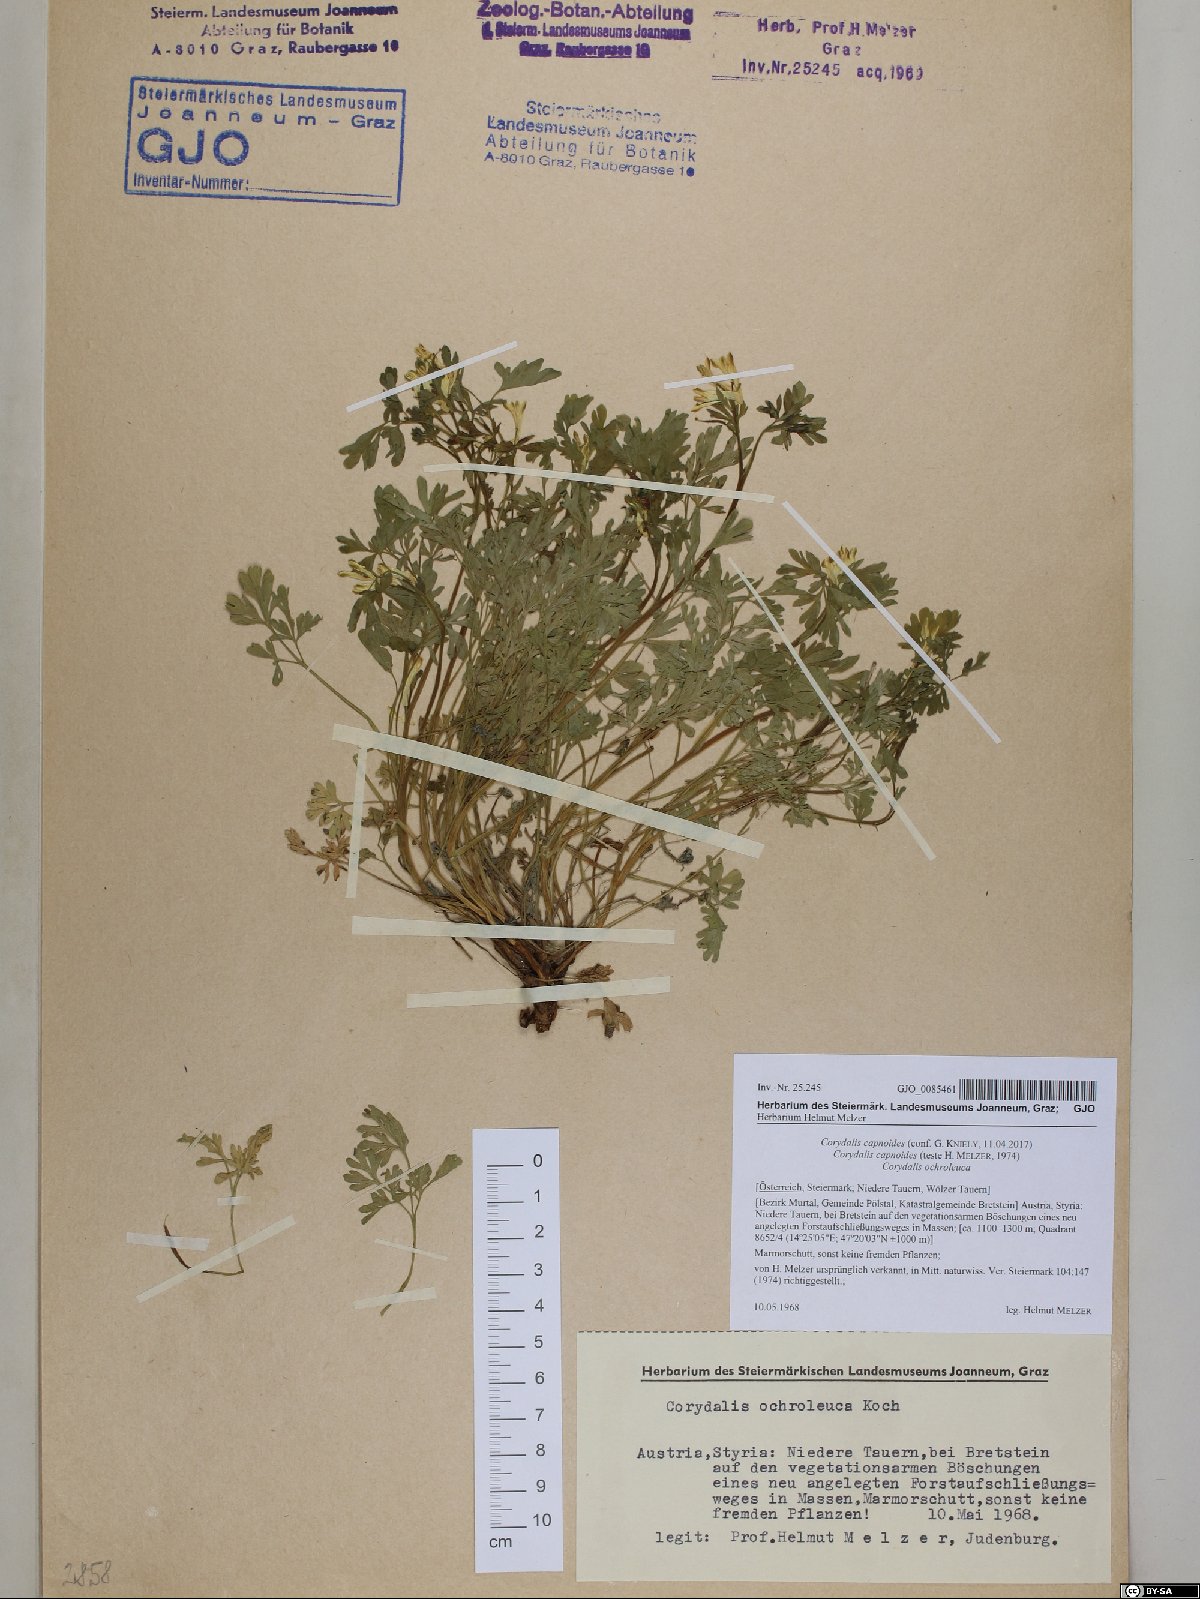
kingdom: Plantae
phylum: Tracheophyta
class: Magnoliopsida
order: Ranunculales
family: Papaveraceae
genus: Corydalis
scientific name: Corydalis capnoides
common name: Beaked corydalis
